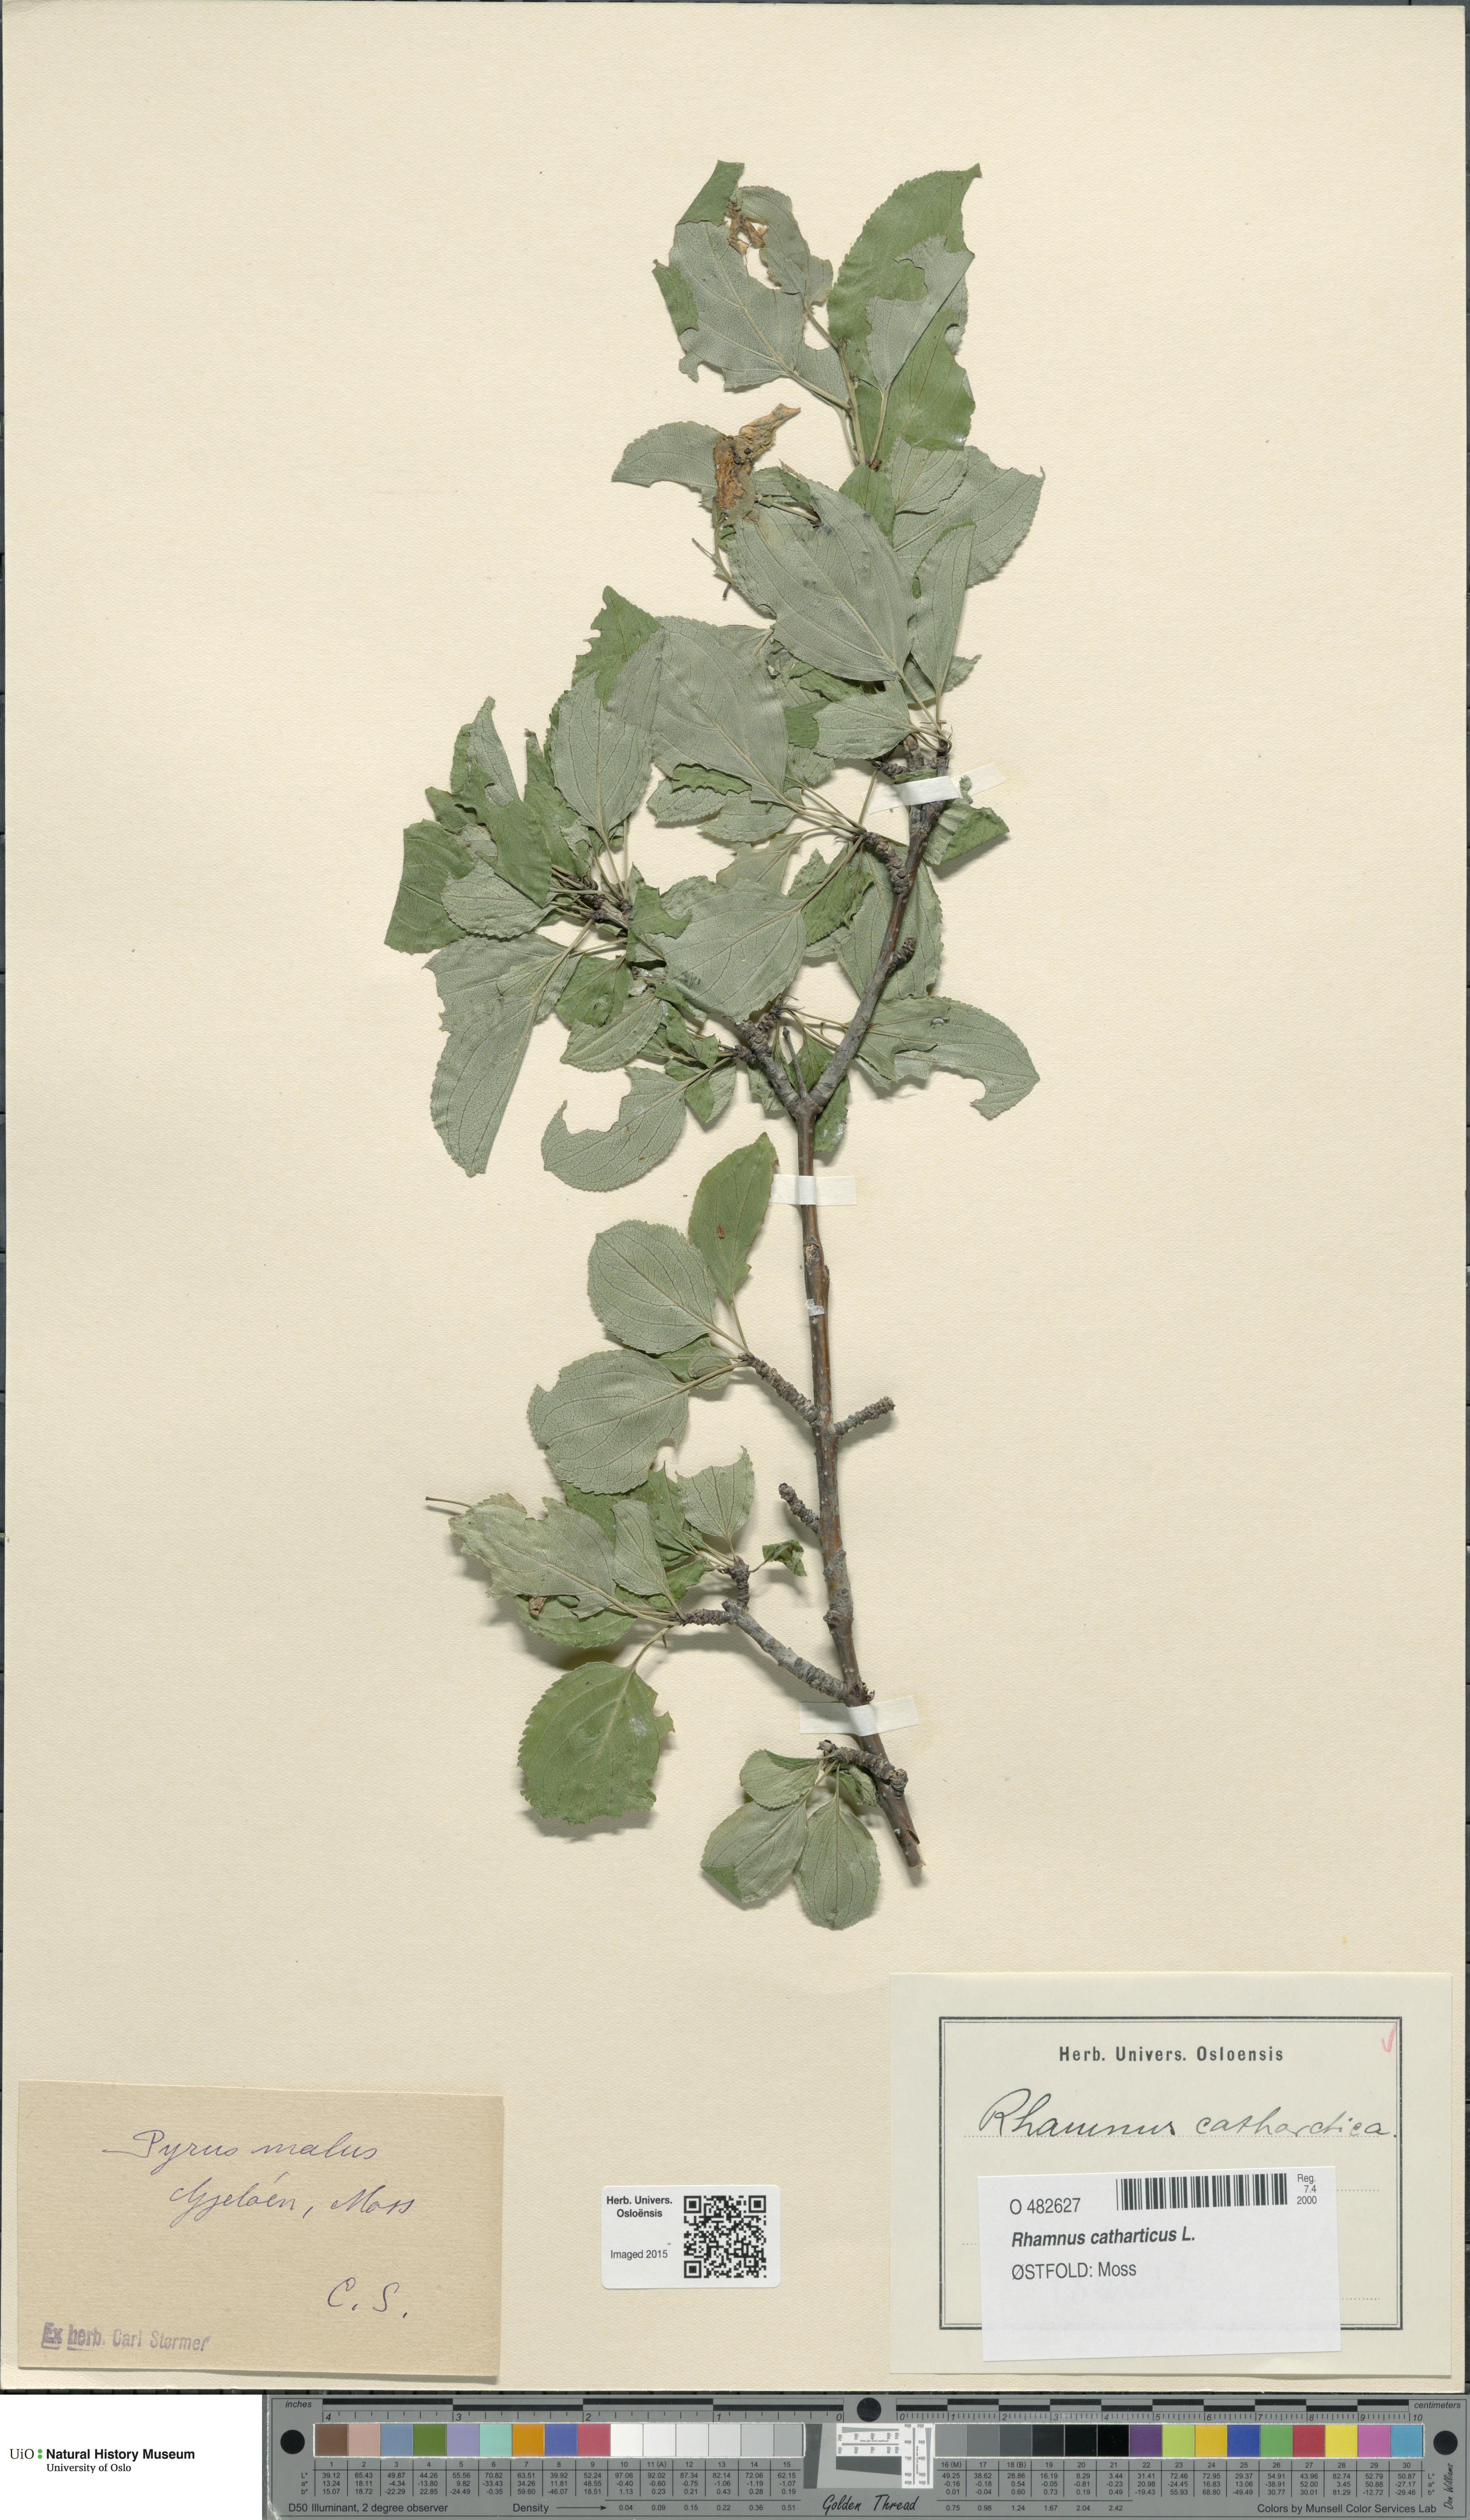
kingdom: Plantae
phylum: Tracheophyta
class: Magnoliopsida
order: Rosales
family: Rhamnaceae
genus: Rhamnus
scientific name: Rhamnus cathartica
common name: Common buckthorn
